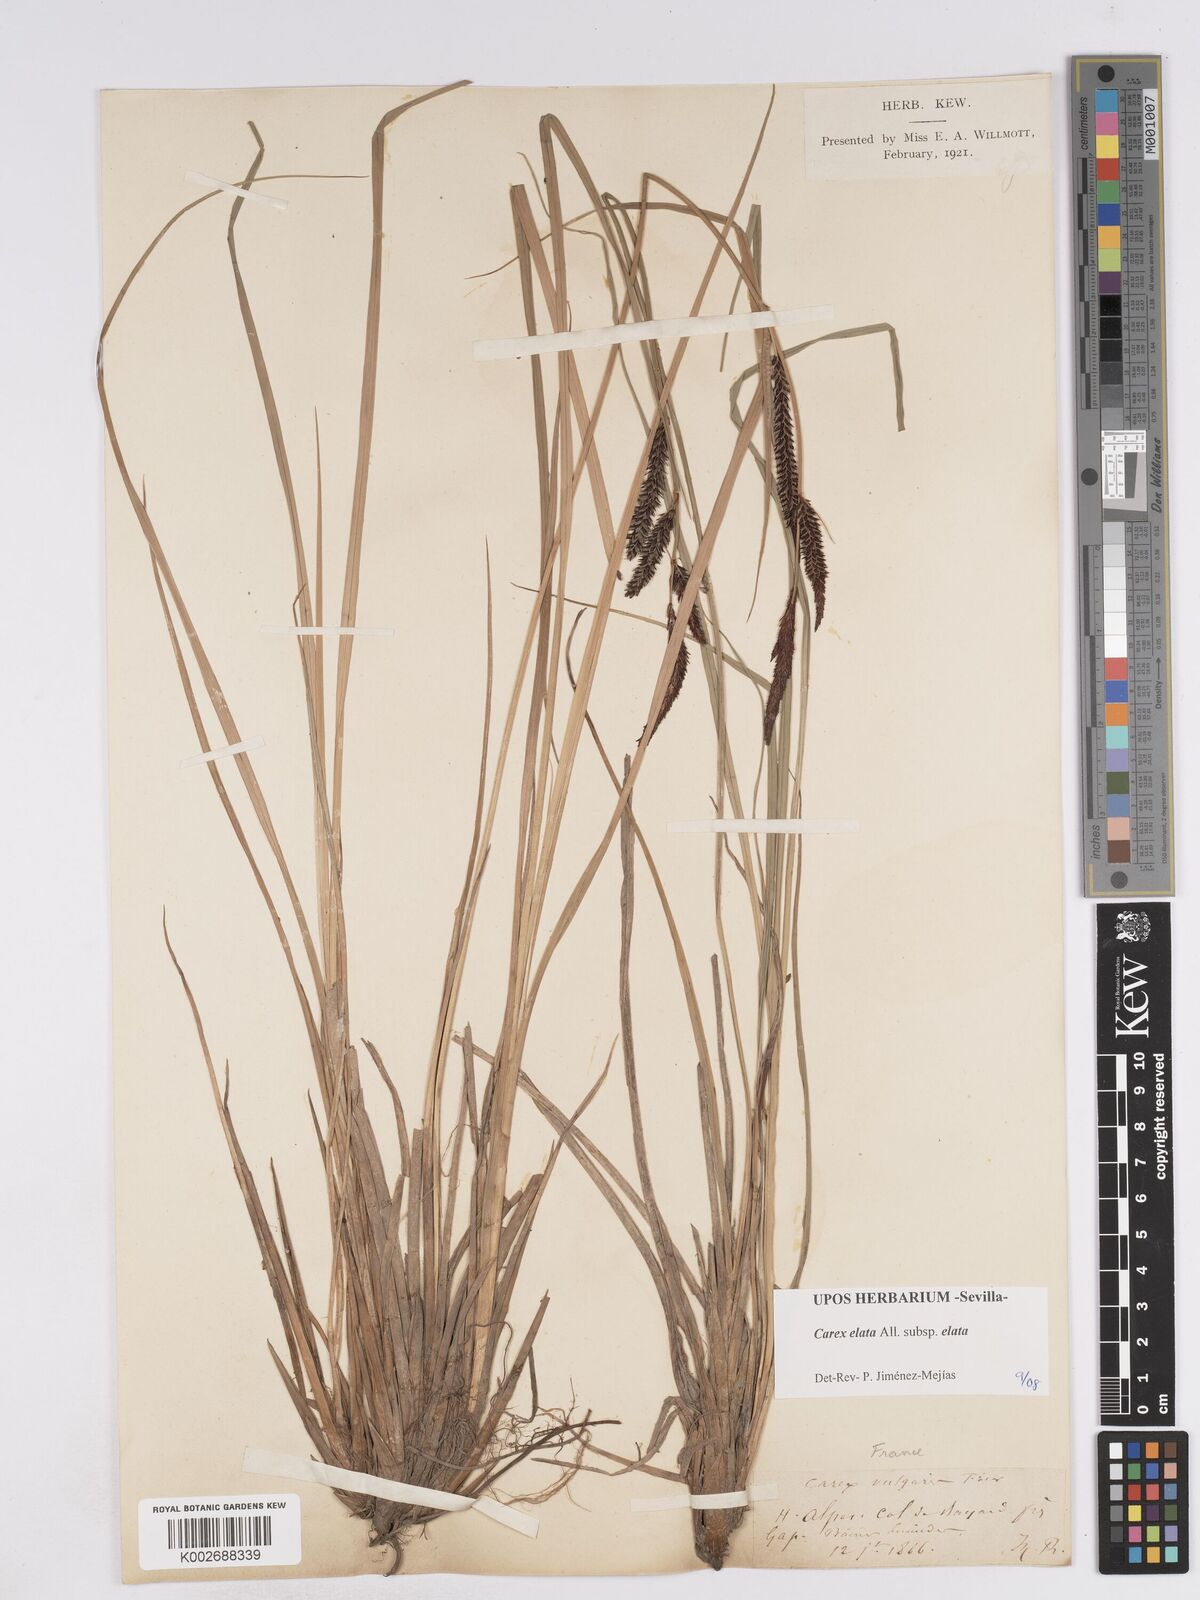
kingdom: Plantae
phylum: Tracheophyta
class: Liliopsida
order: Poales
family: Cyperaceae
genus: Carex
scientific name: Carex elata
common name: Tufted sedge
